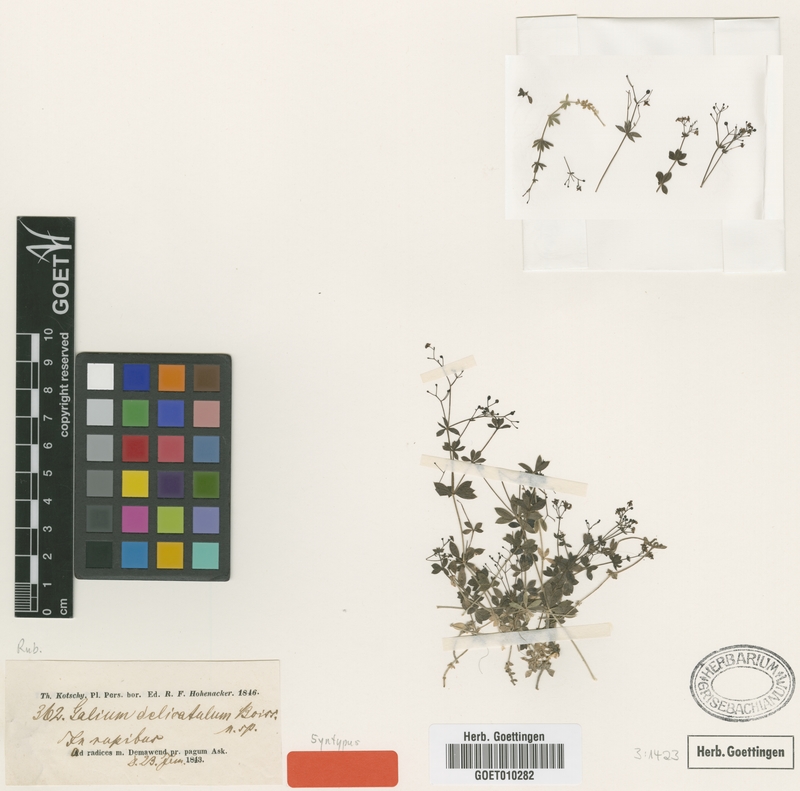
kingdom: Plantae
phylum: Tracheophyta
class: Magnoliopsida
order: Gentianales
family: Rubiaceae
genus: Galium
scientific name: Galium delicatulum
